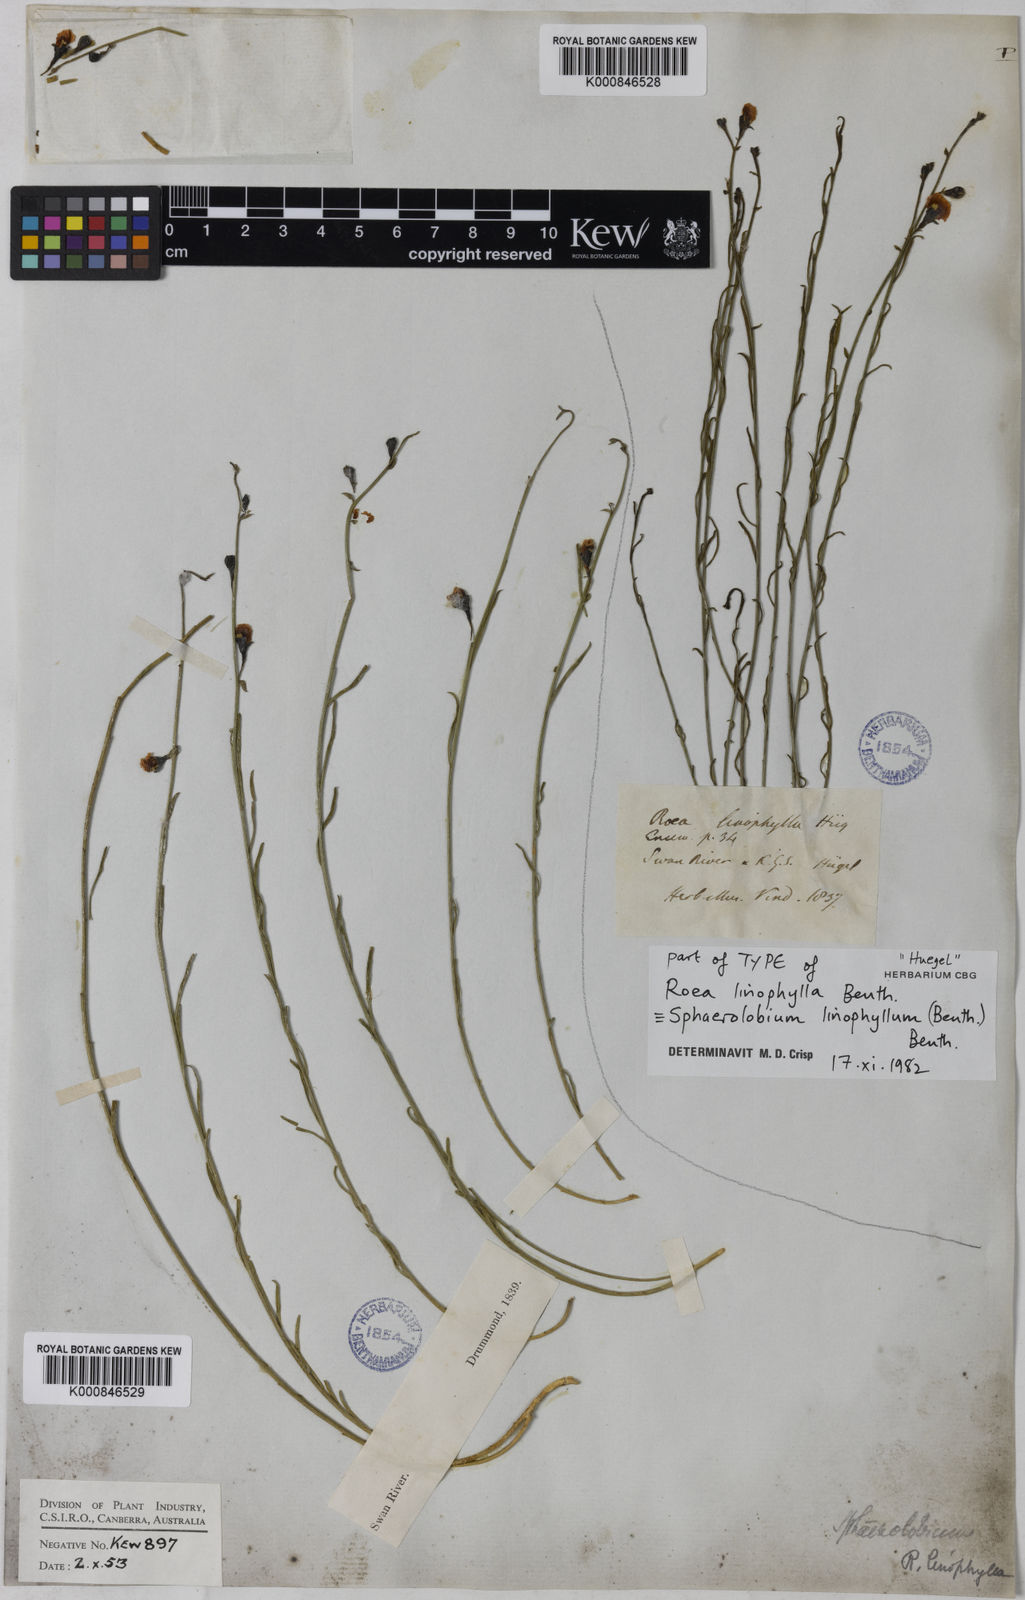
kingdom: Plantae
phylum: Tracheophyta
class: Magnoliopsida
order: Fabales
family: Fabaceae
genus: Sphaerolobium
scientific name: Sphaerolobium linophyllum
